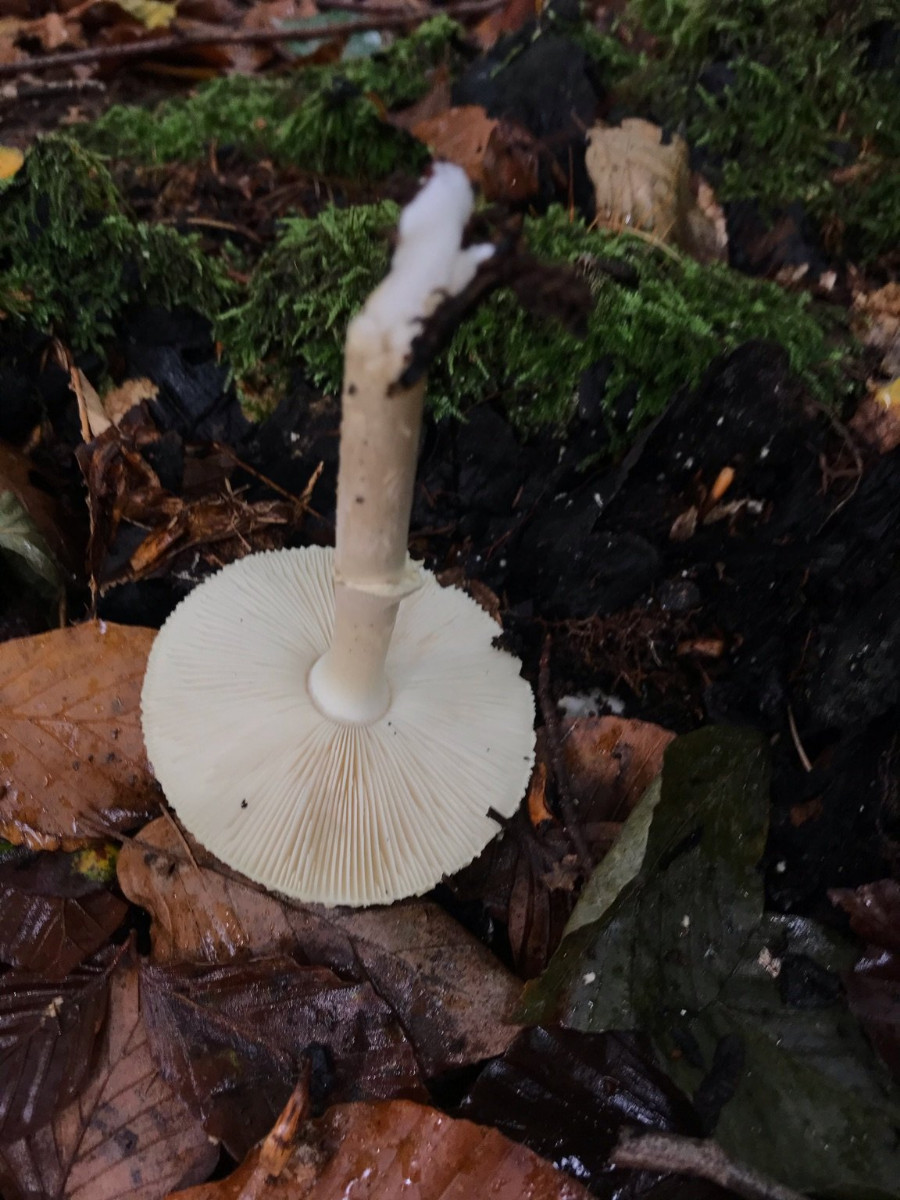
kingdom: Fungi
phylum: Basidiomycota
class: Agaricomycetes
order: Agaricales
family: Amanitaceae
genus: Amanita
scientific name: Amanita citrina
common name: kugleknoldet fluesvamp
